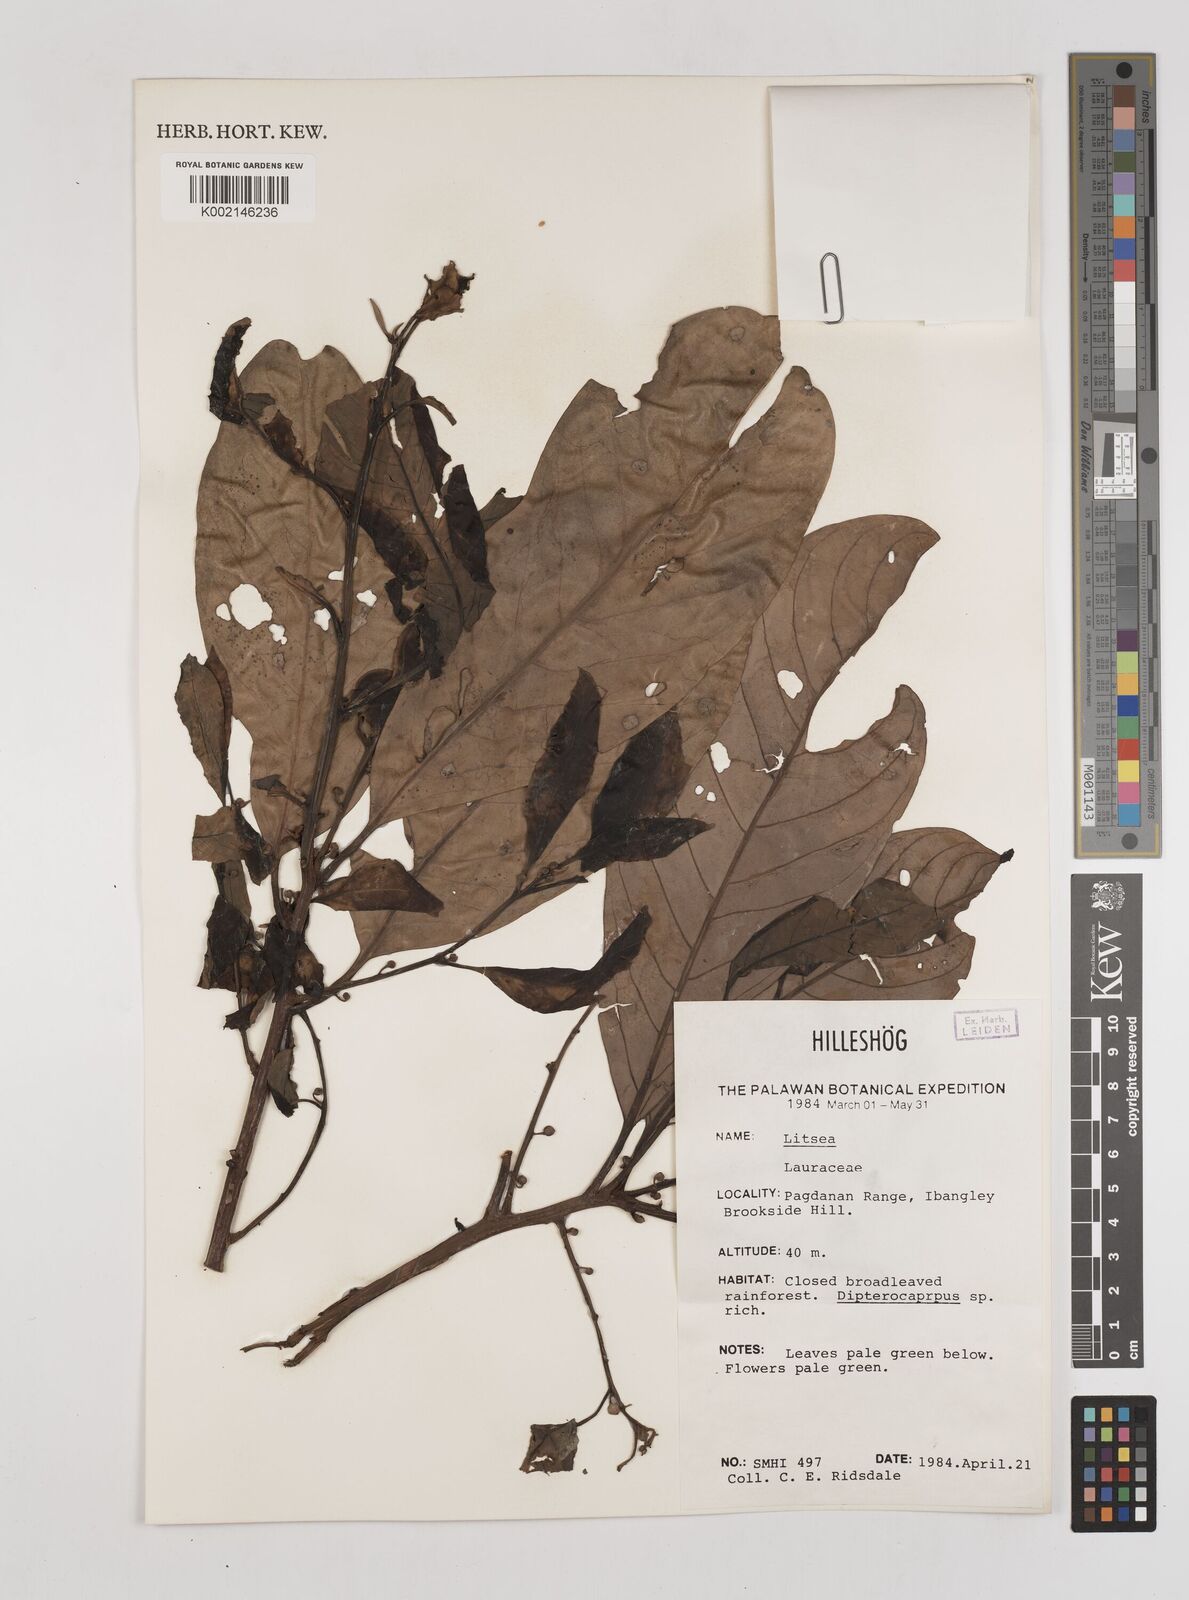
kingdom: Plantae
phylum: Tracheophyta
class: Magnoliopsida
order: Laurales
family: Lauraceae
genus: Litsea
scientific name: Litsea
